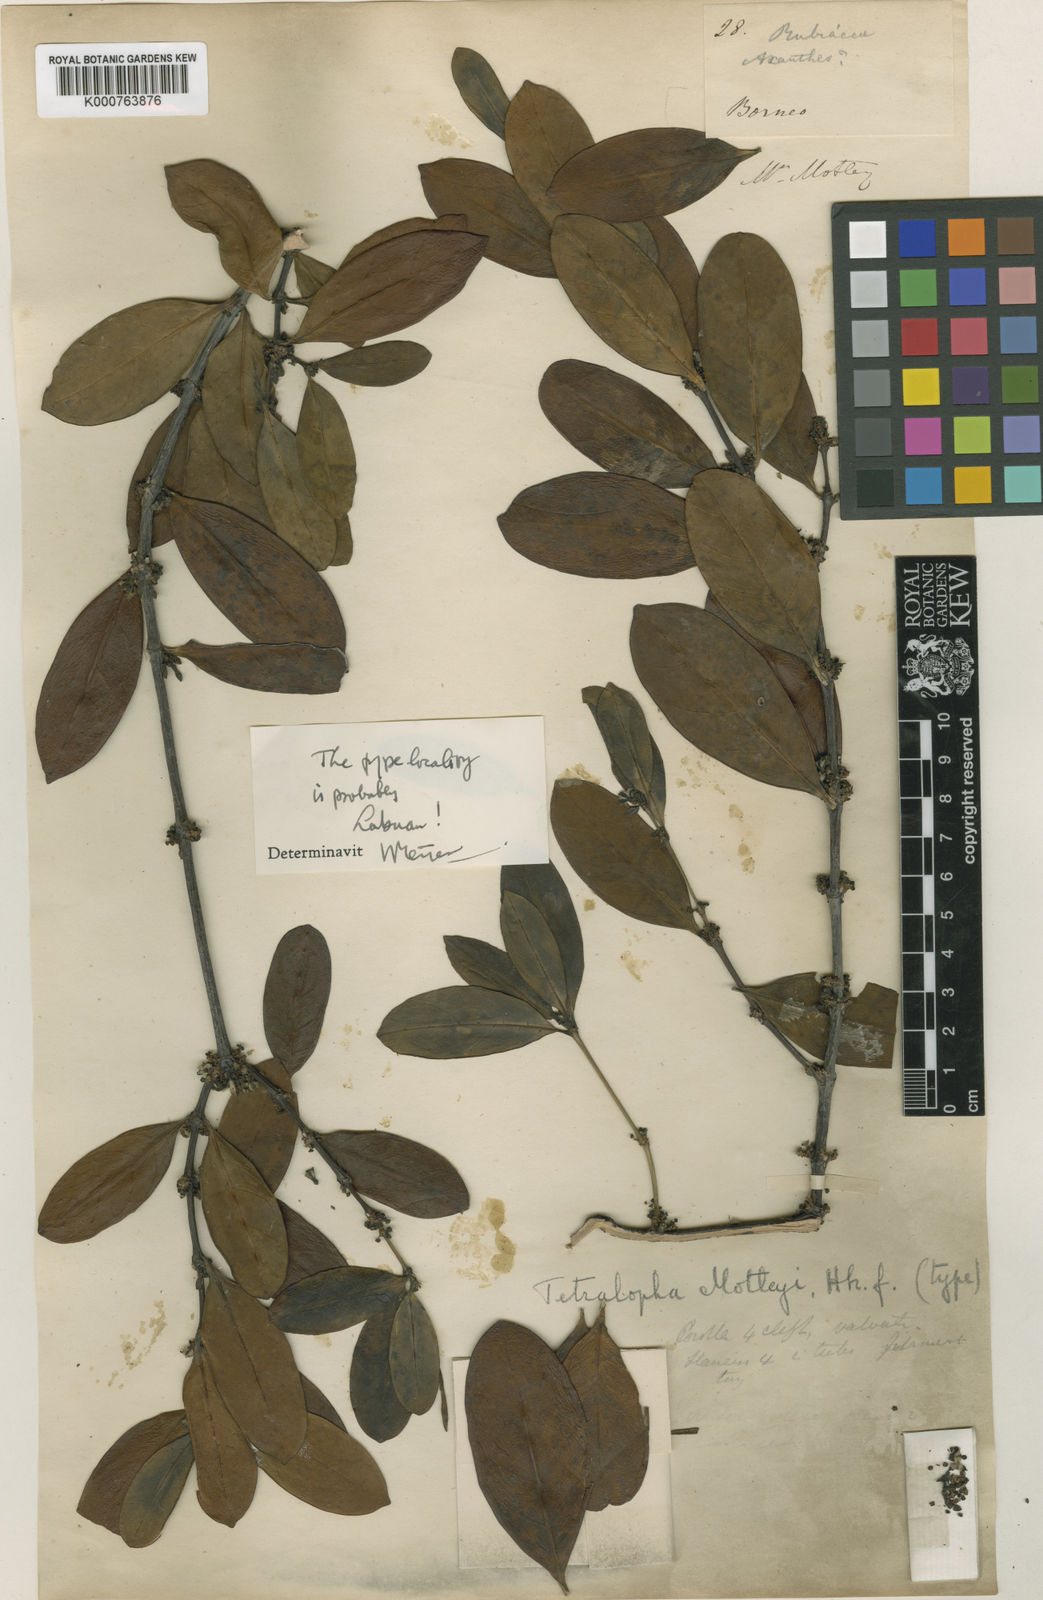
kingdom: Plantae
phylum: Tracheophyta
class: Magnoliopsida
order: Gentianales
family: Rubiaceae
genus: Gynochthodes
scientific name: Gynochthodes motleyi
